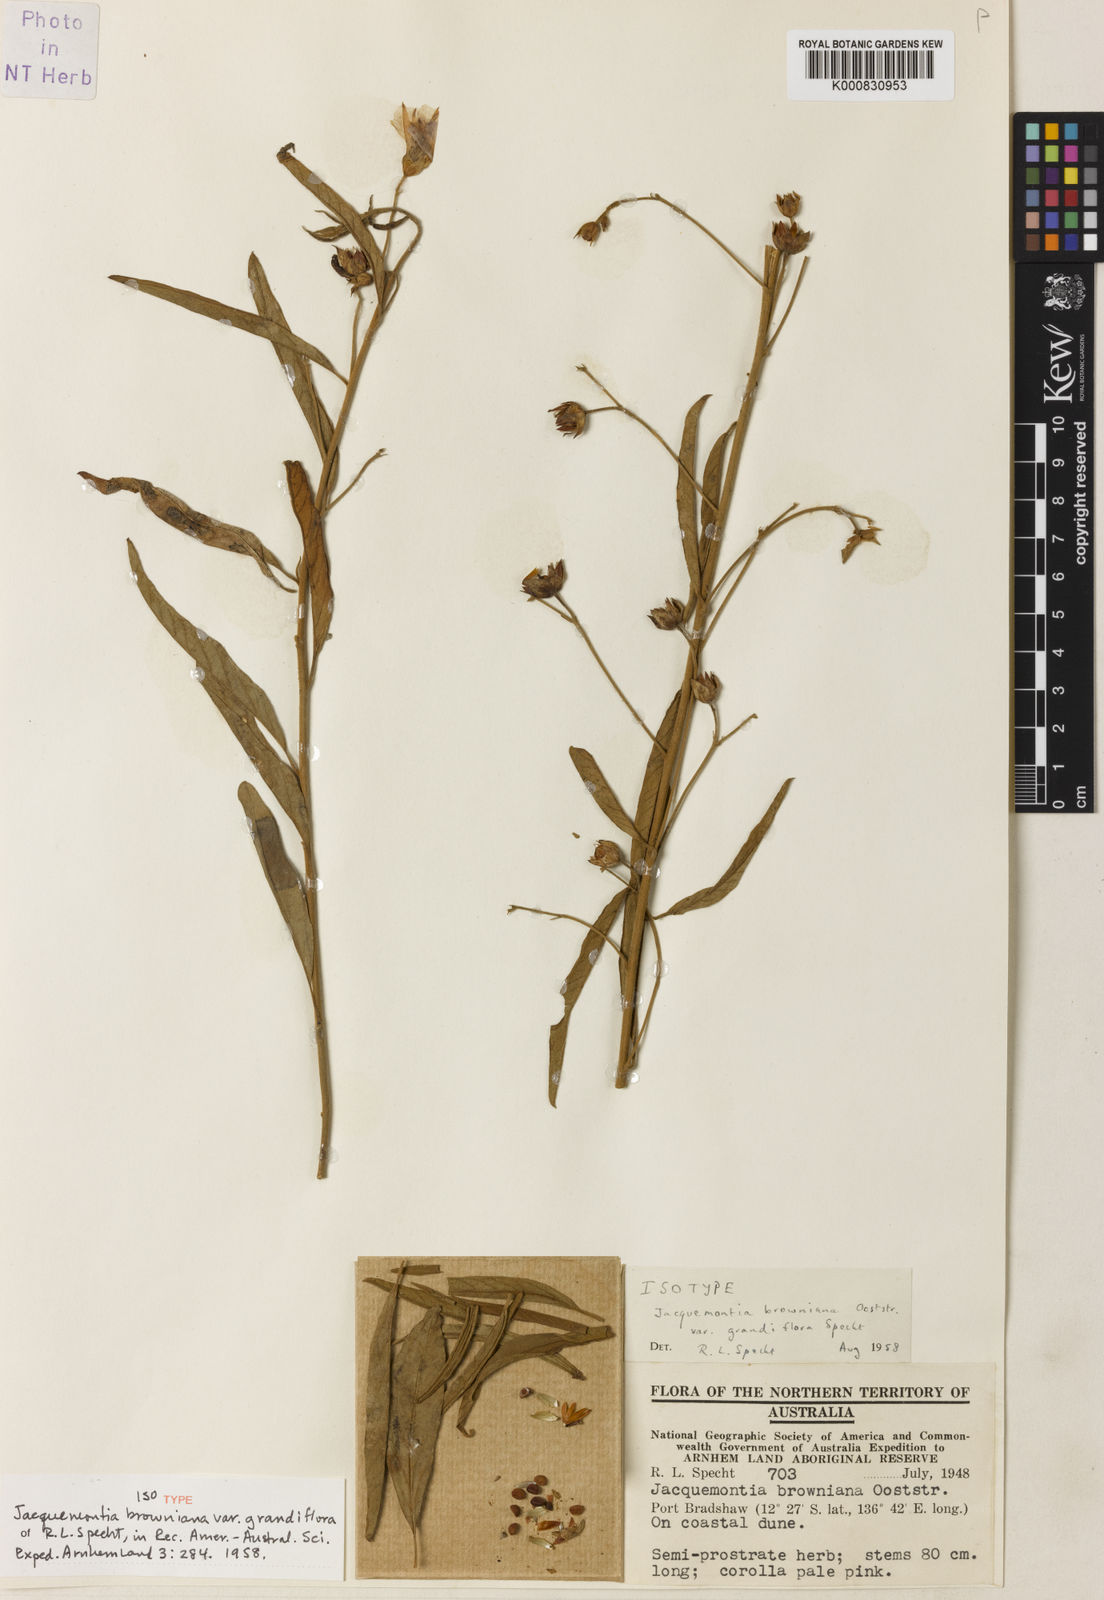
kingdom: Plantae
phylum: Tracheophyta
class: Magnoliopsida
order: Solanales
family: Convolvulaceae
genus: Jacquemontia
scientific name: Jacquemontia browniana
